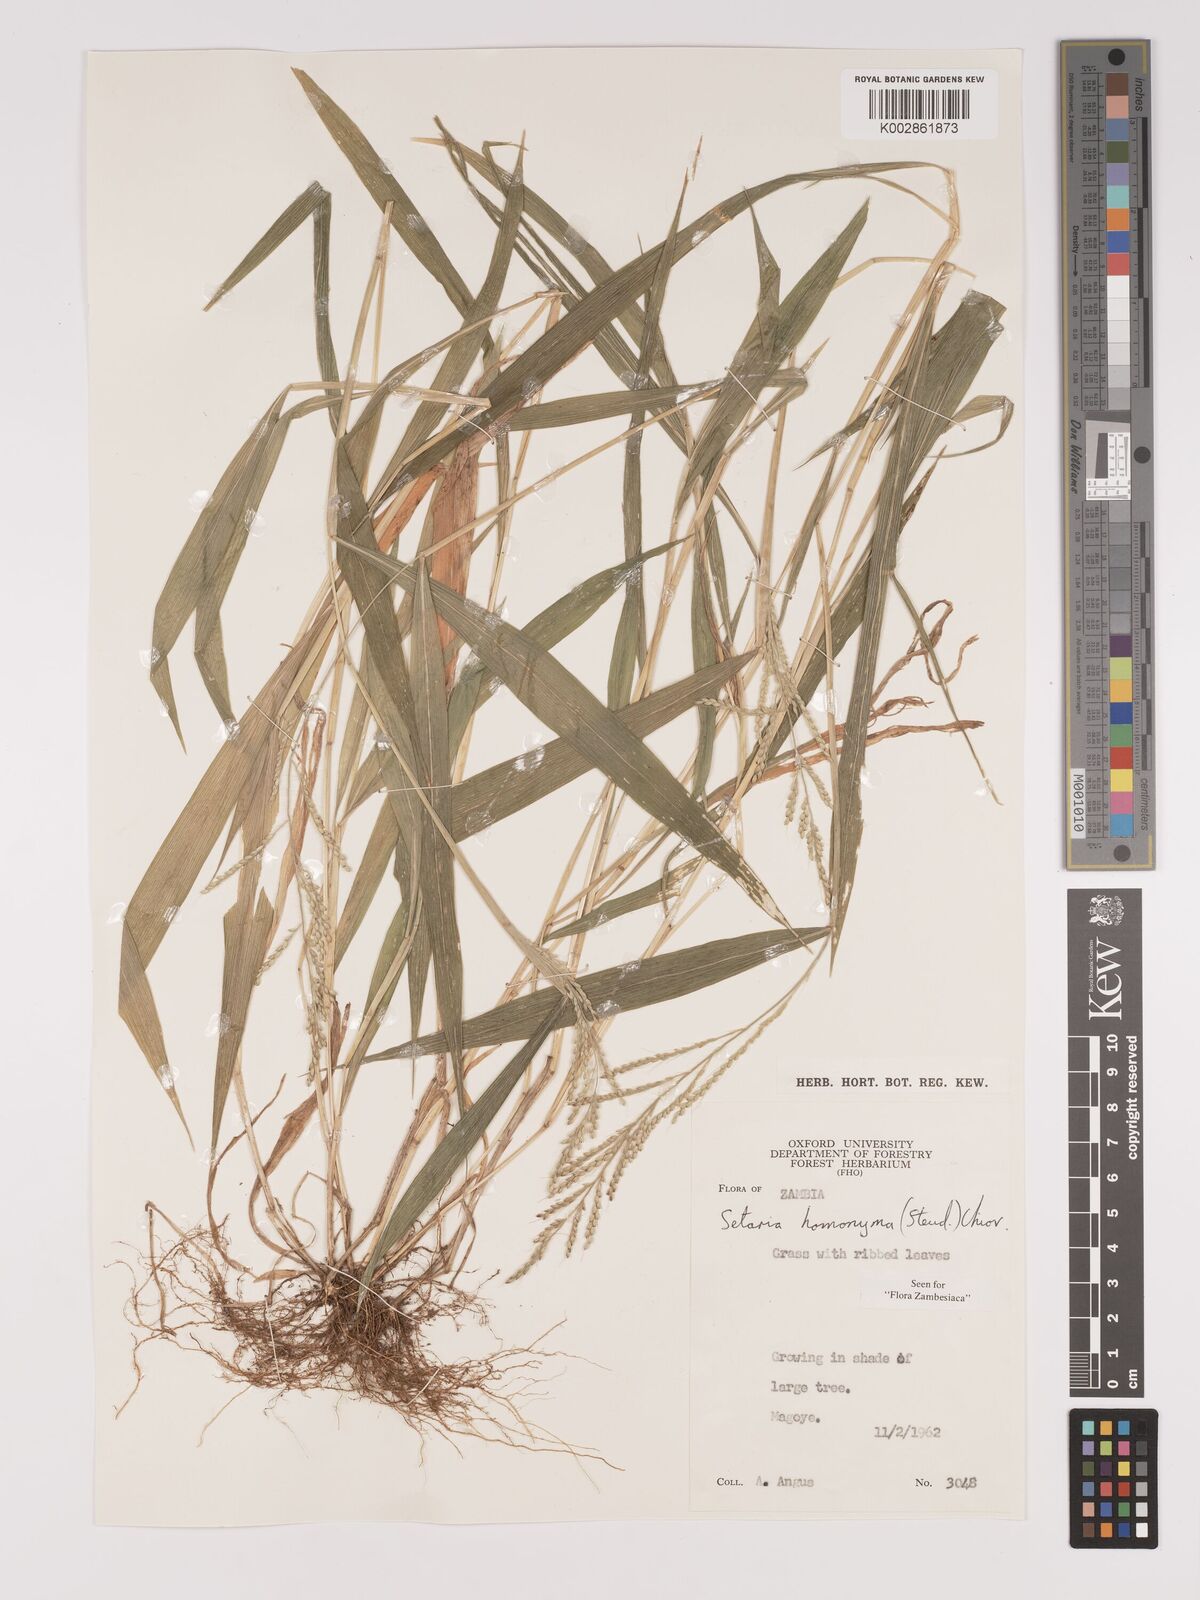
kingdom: Plantae
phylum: Tracheophyta
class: Liliopsida
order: Poales
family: Poaceae
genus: Setaria
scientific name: Setaria homonyma
